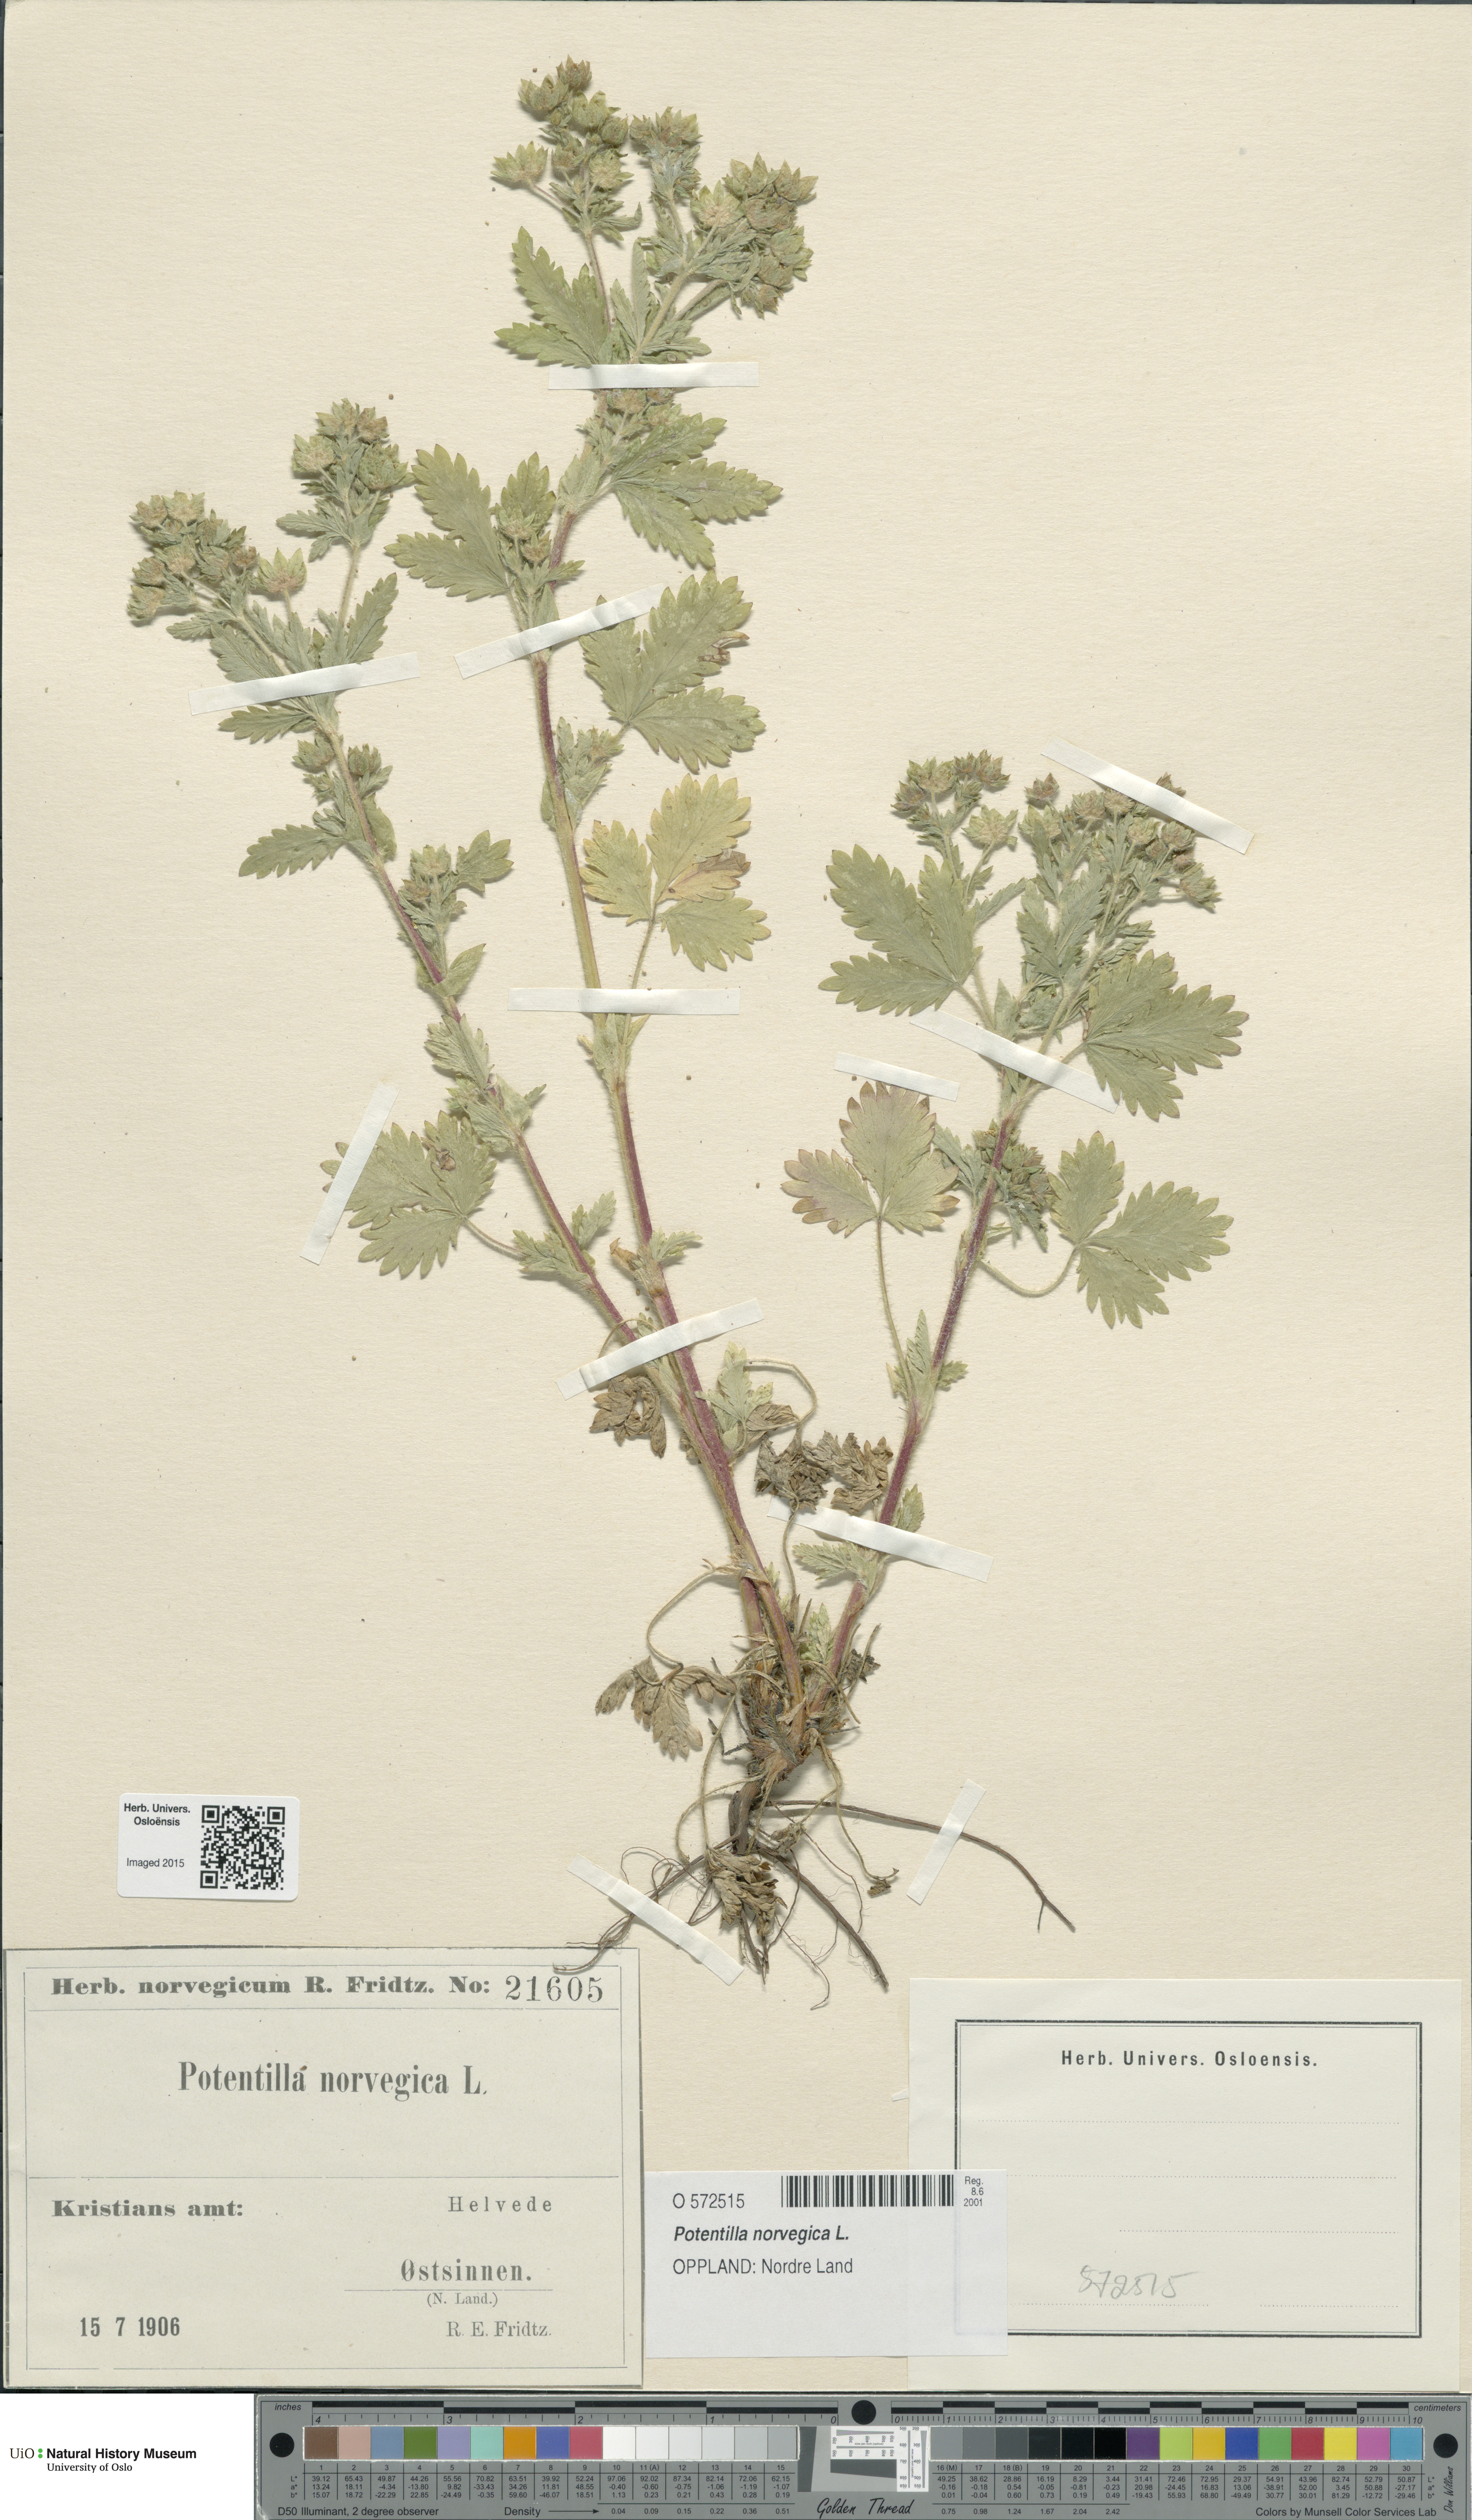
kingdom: Plantae
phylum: Tracheophyta
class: Magnoliopsida
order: Rosales
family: Rosaceae
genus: Potentilla
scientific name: Potentilla norvegica
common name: Ternate-leaved cinquefoil
